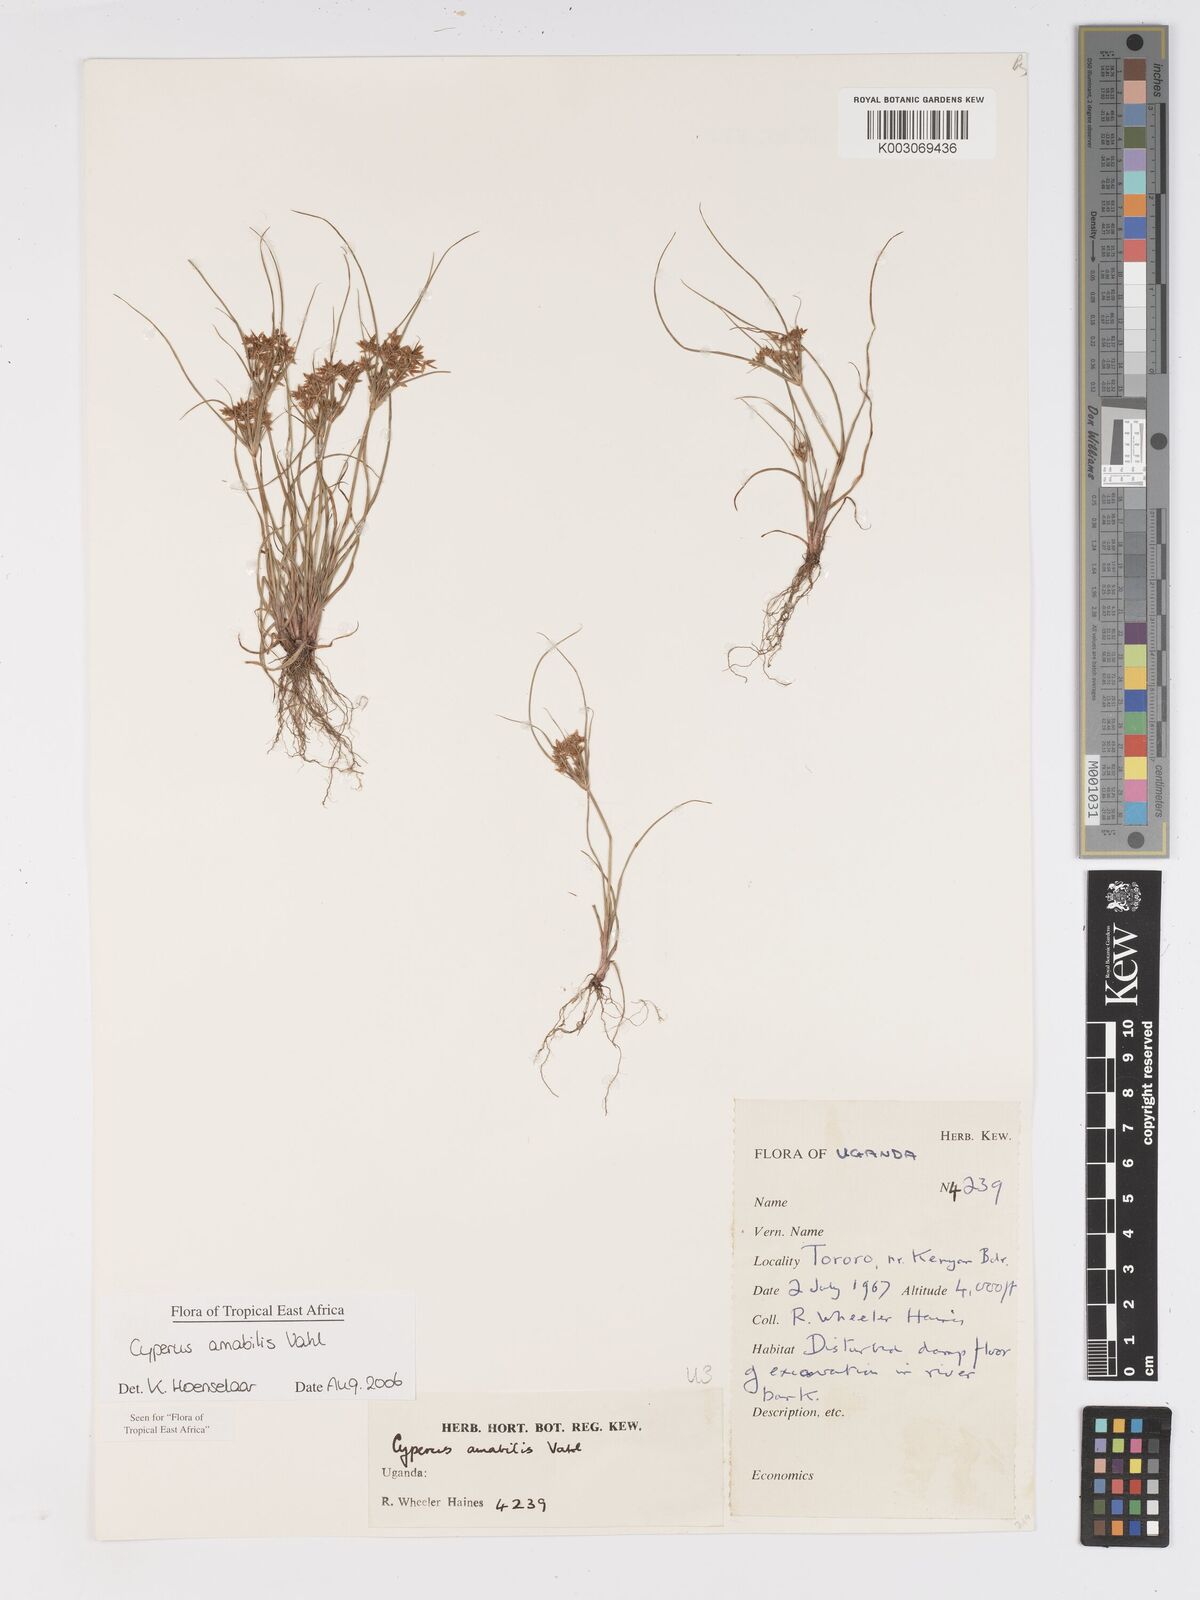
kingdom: Plantae
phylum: Tracheophyta
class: Liliopsida
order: Poales
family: Cyperaceae
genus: Cyperus
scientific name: Cyperus amabilis
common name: Foothill flat sedge
